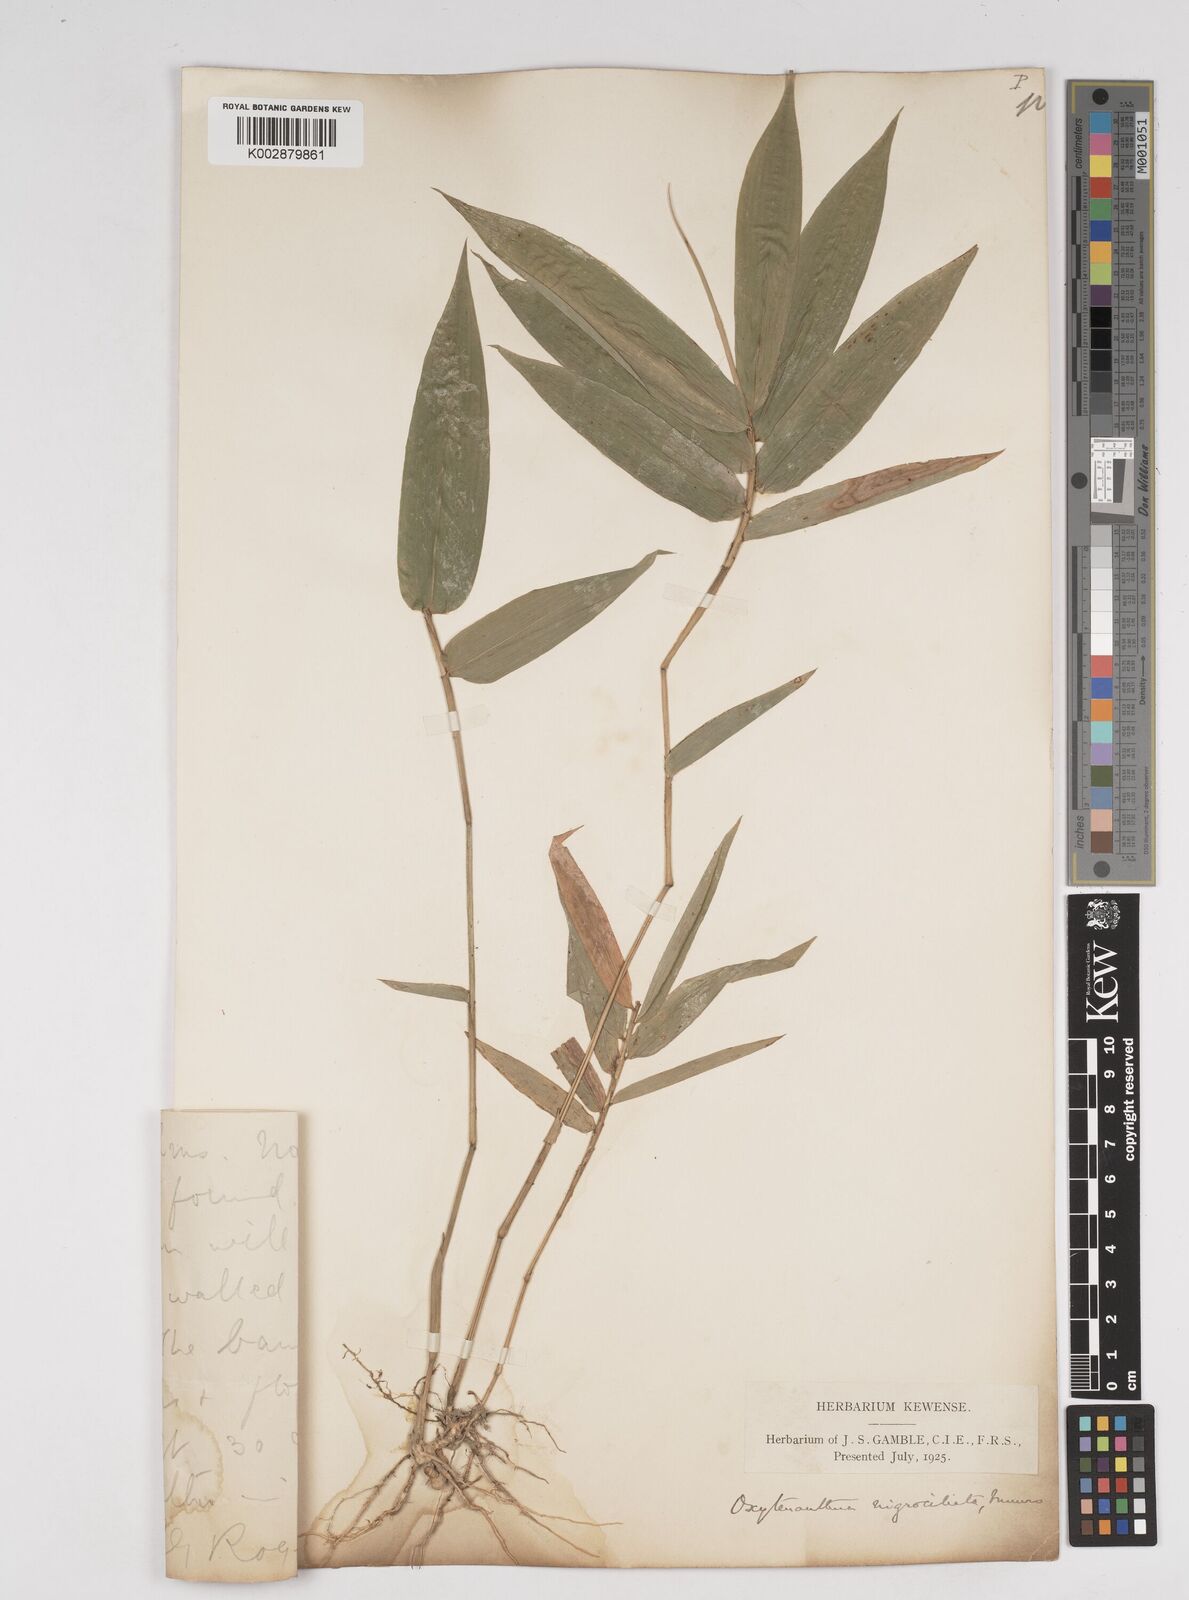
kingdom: Plantae
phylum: Tracheophyta
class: Liliopsida
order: Poales
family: Poaceae
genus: Gigantochloa
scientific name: Gigantochloa
